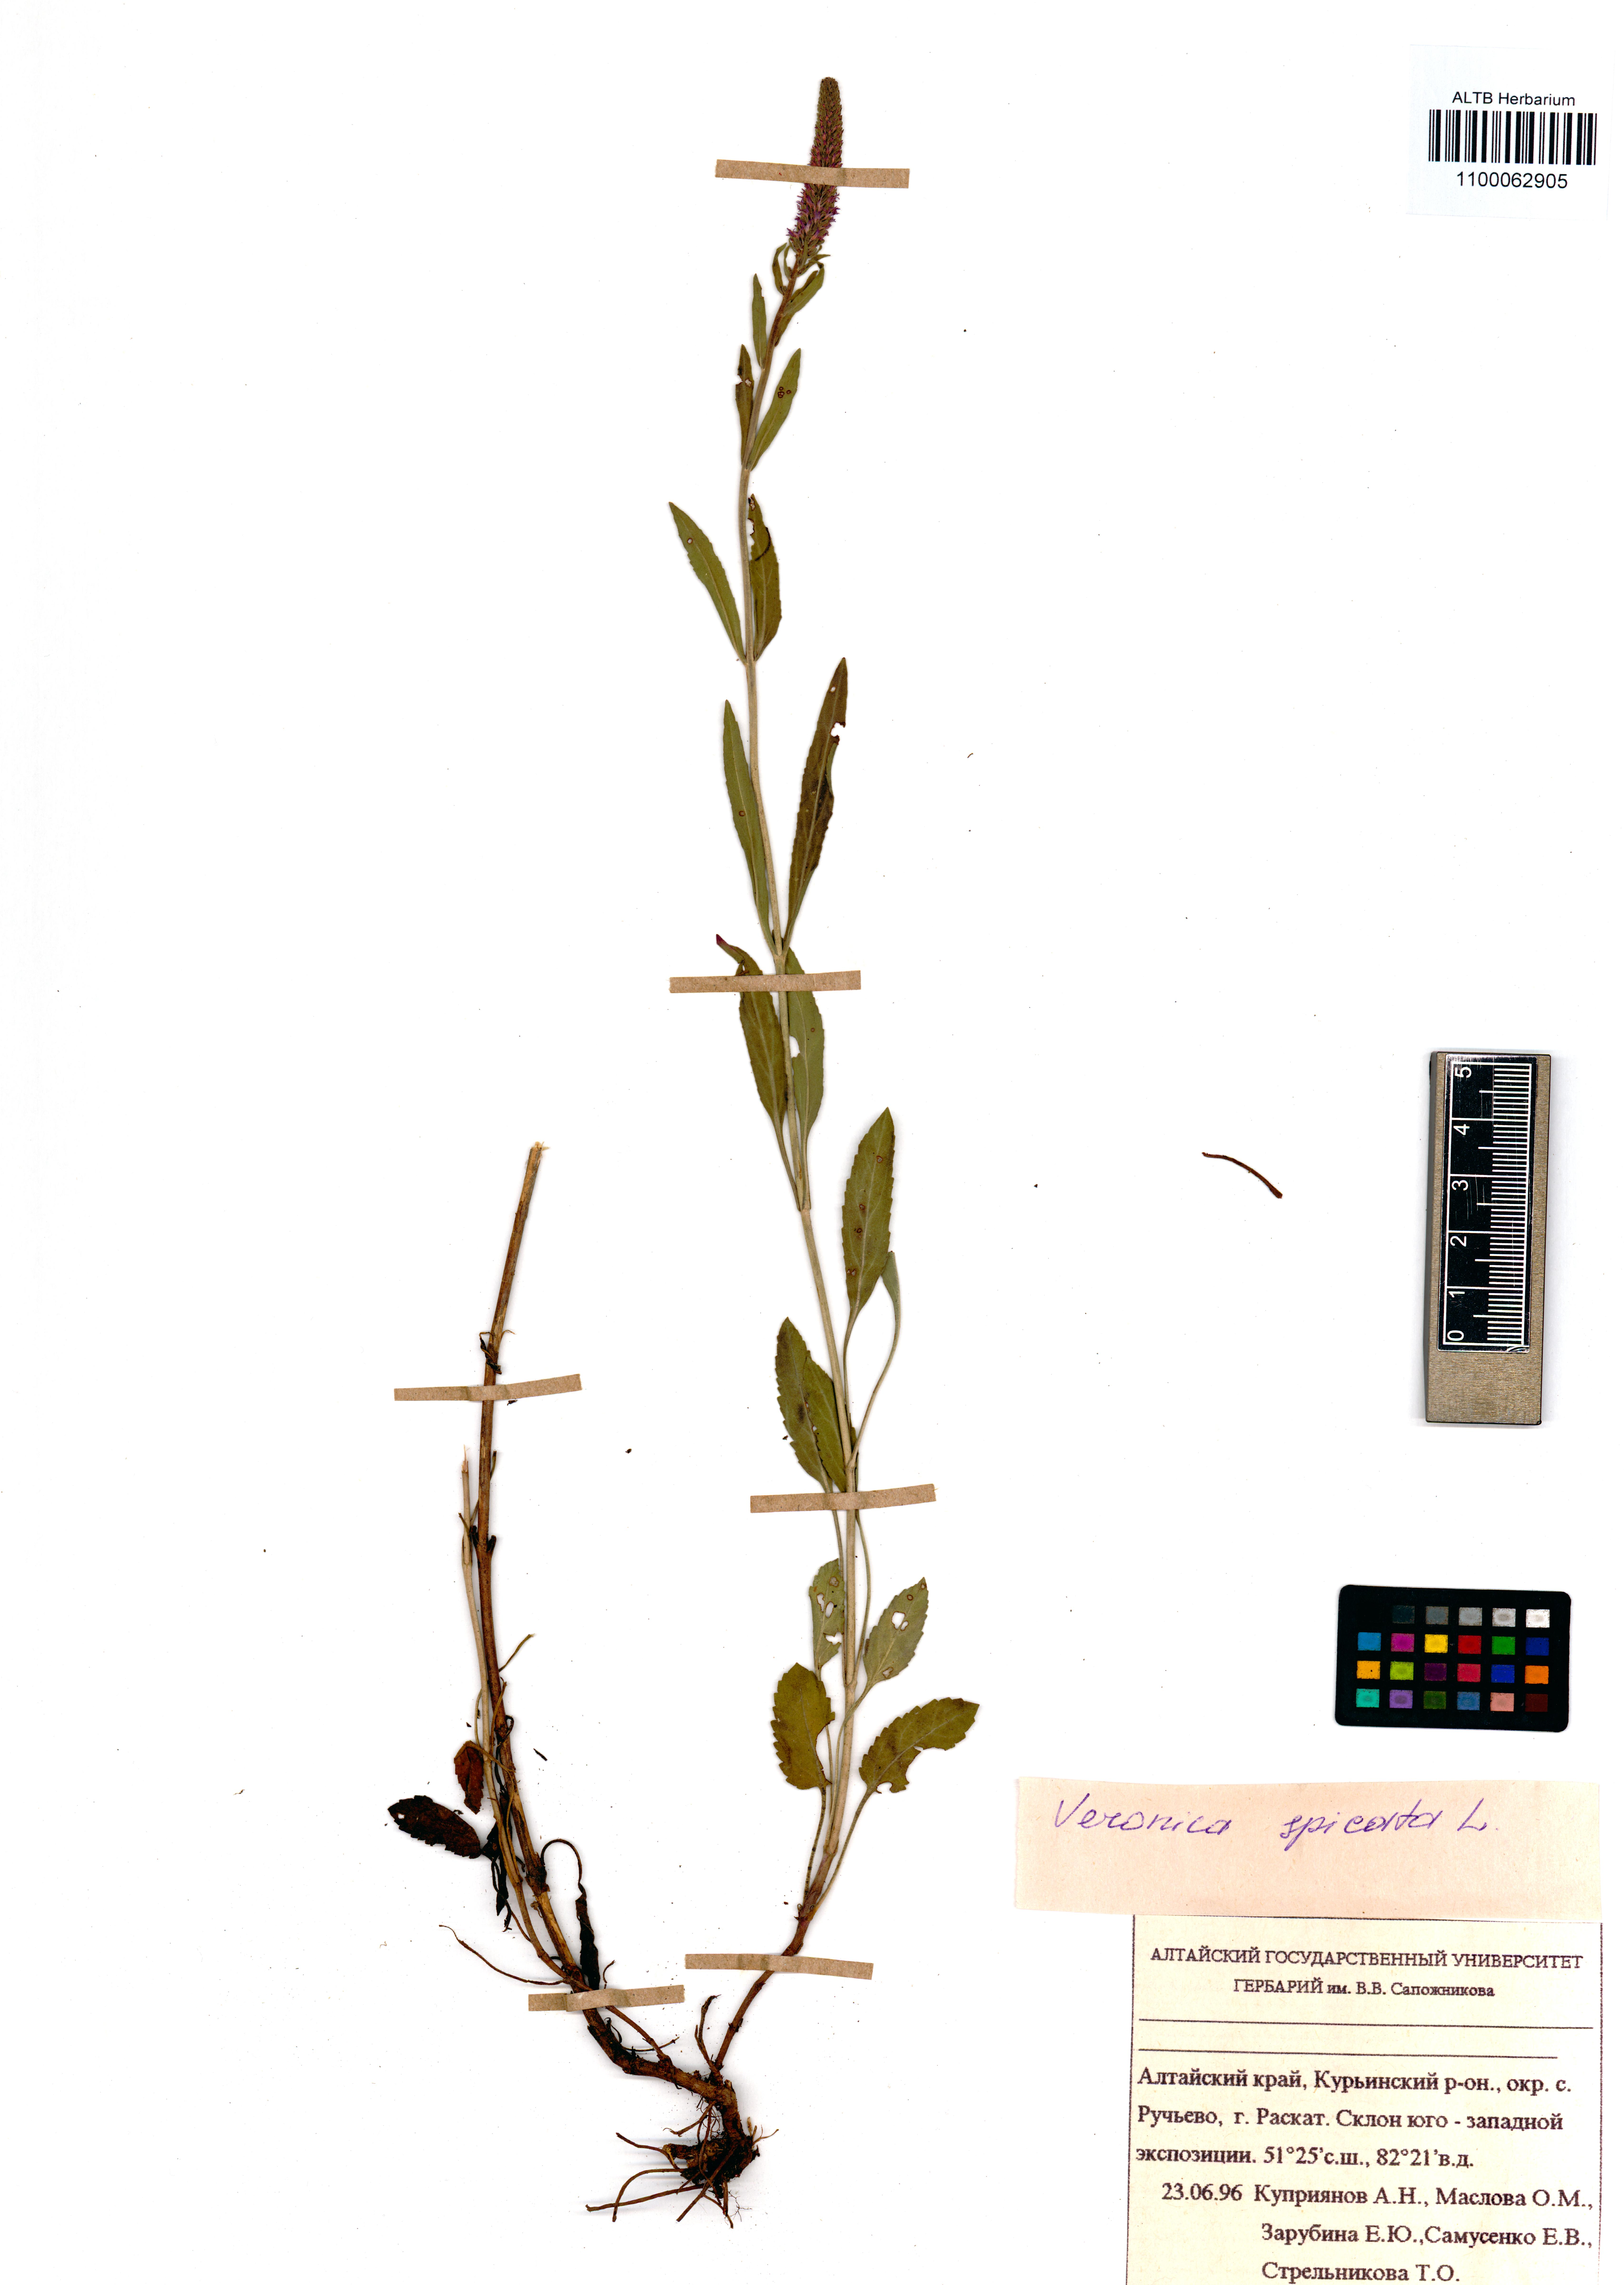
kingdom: Plantae
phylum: Tracheophyta
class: Magnoliopsida
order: Lamiales
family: Plantaginaceae
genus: Veronica
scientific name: Veronica spicata
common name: Spiked speedwell
